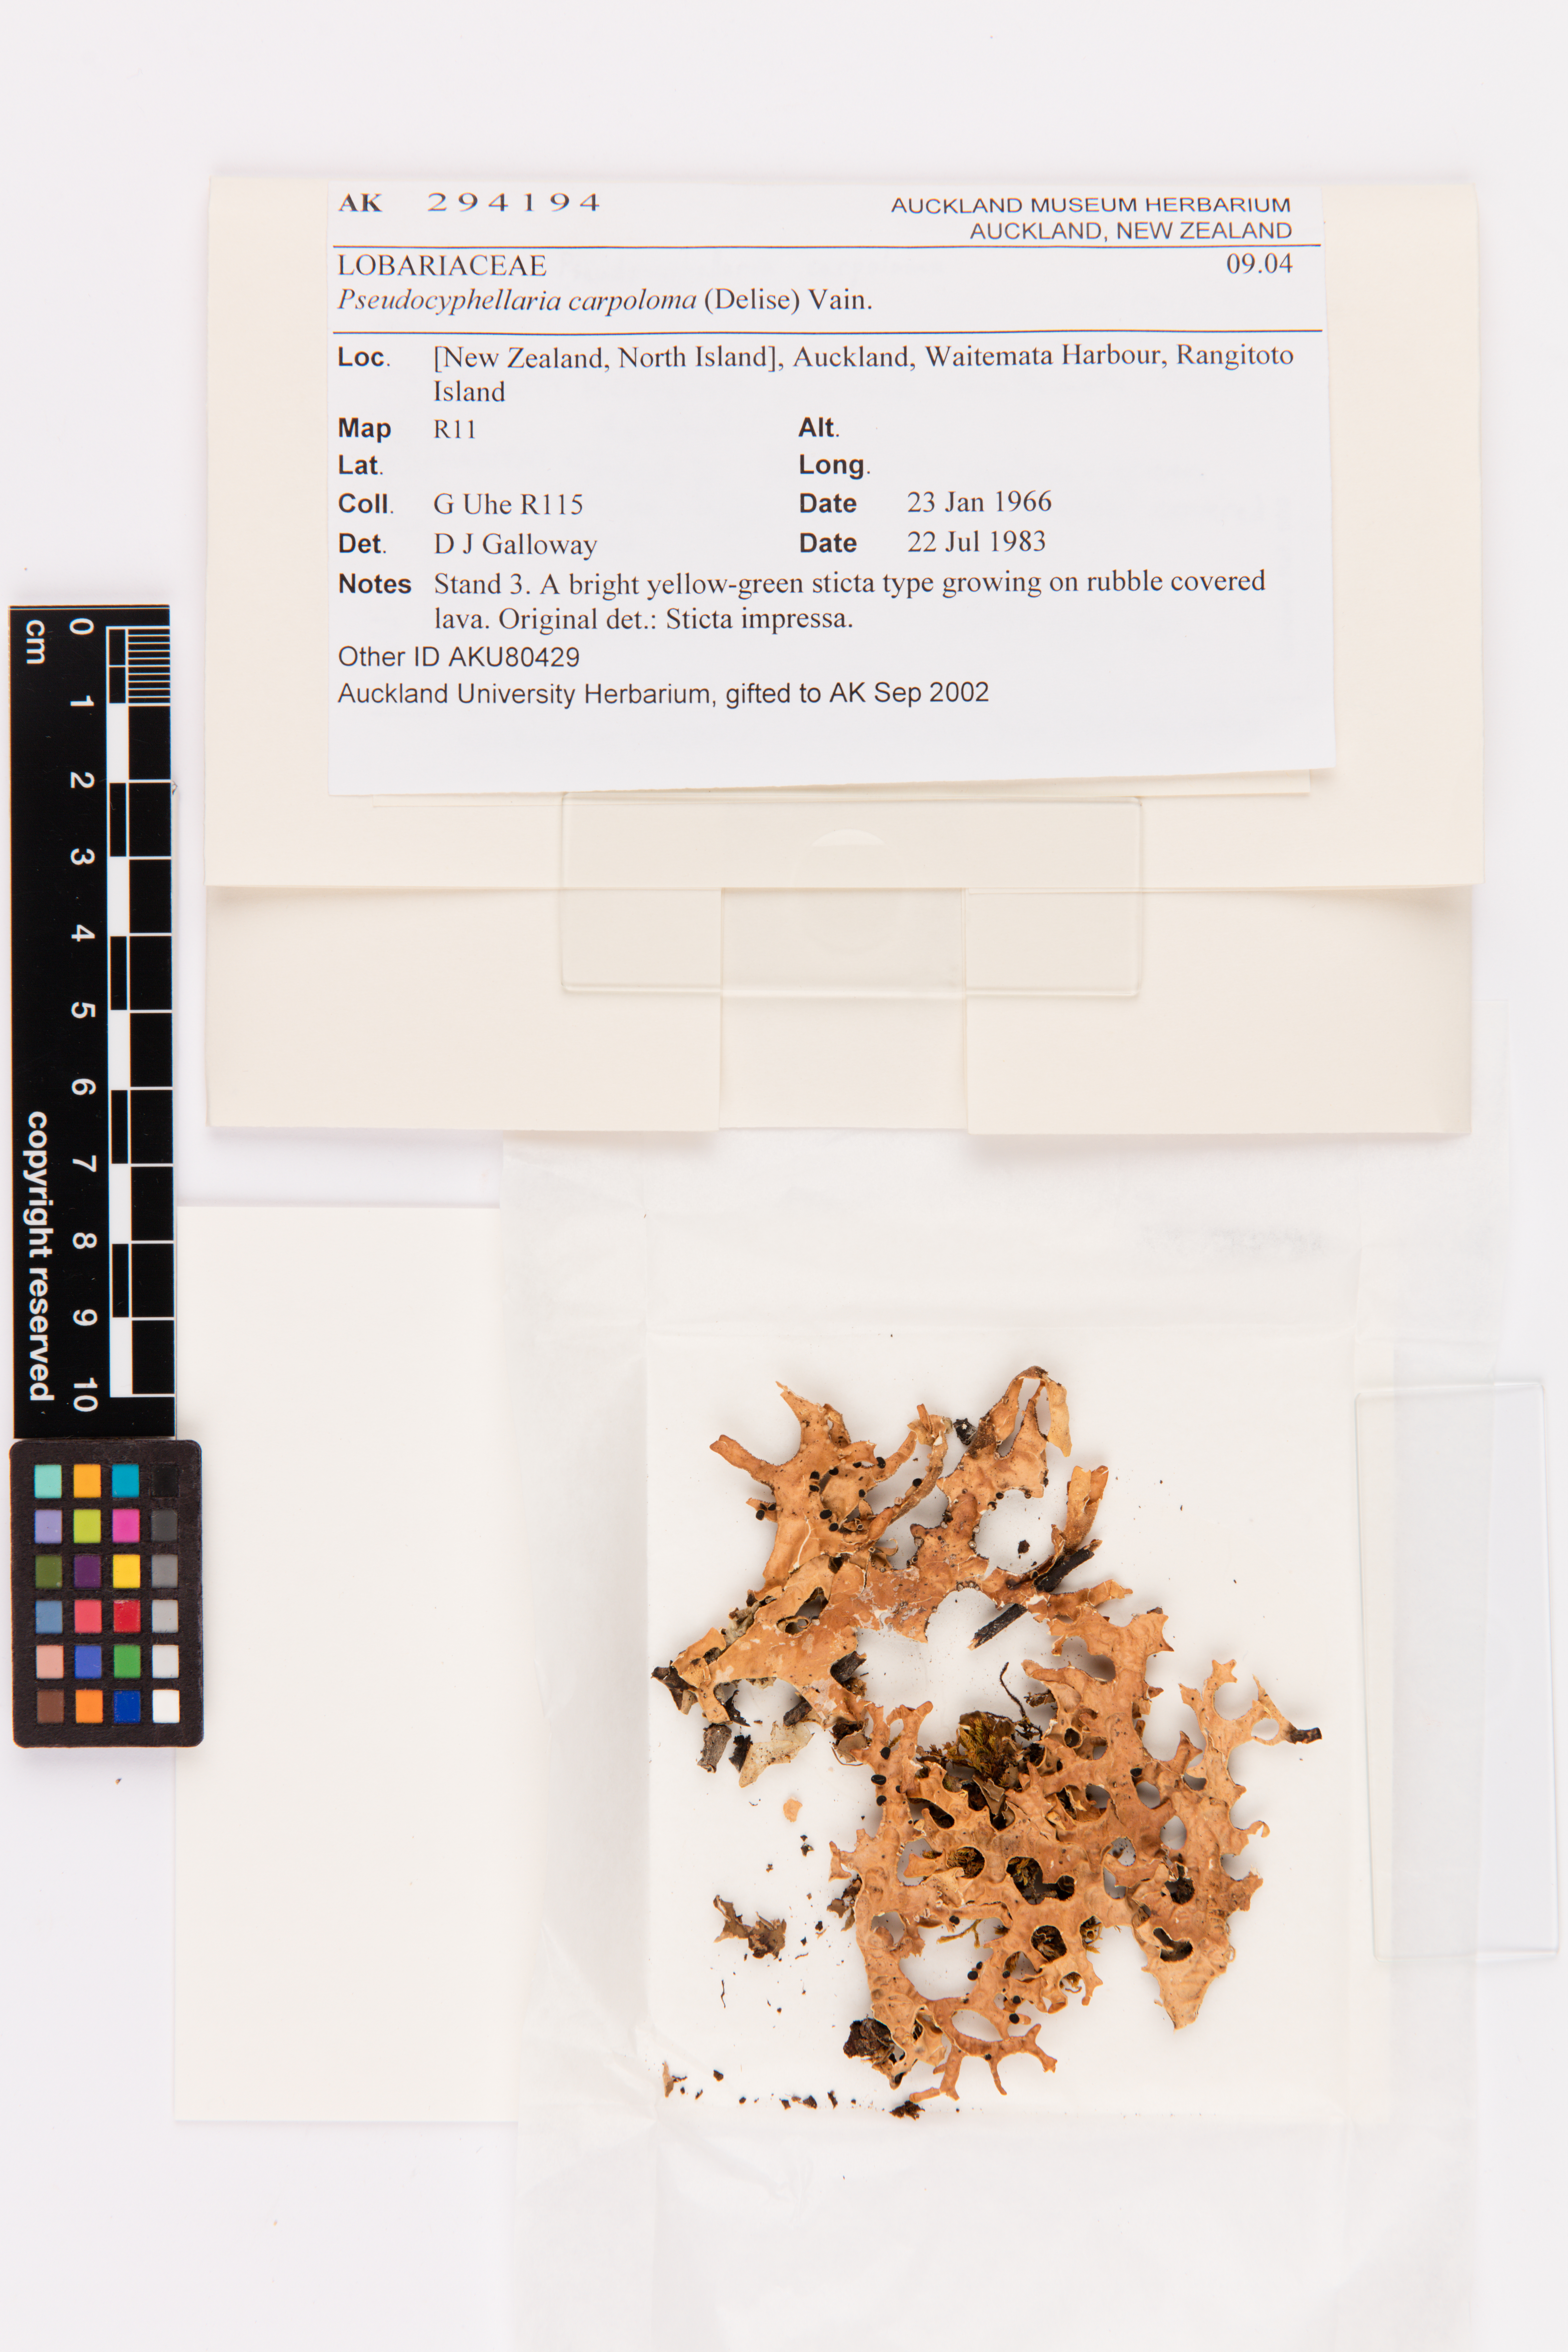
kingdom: Fungi
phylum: Ascomycota
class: Lecanoromycetes
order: Peltigerales
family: Lobariaceae
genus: Pseudocyphellaria
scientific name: Pseudocyphellaria carpoloma
